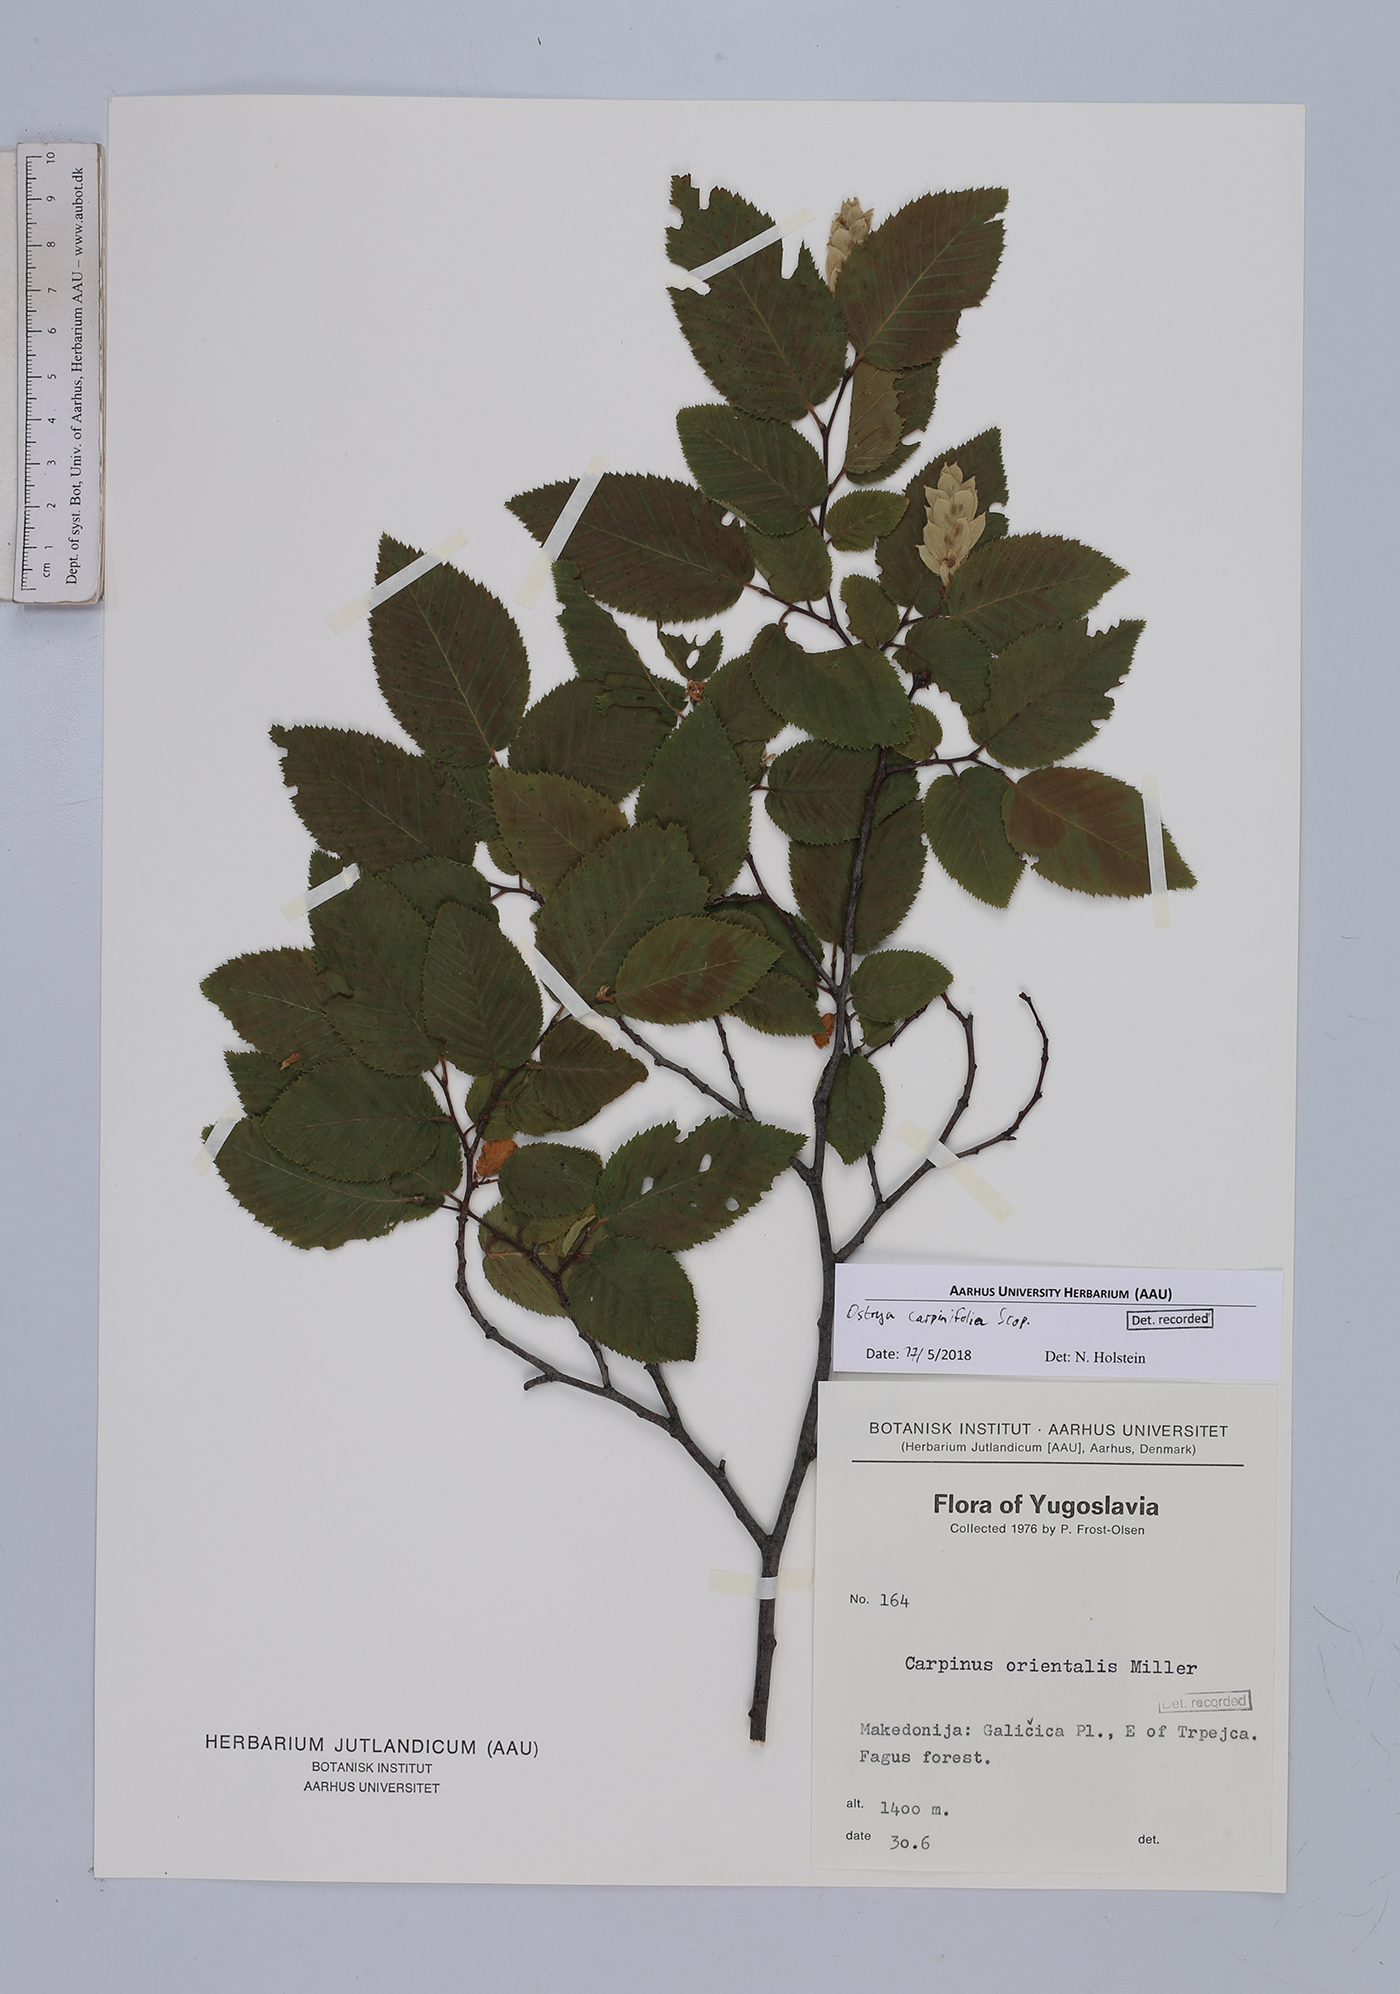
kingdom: Plantae
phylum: Tracheophyta
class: Magnoliopsida
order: Fagales
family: Betulaceae
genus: Ostrya
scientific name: Ostrya carpinifolia
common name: European hop-hornbeam
